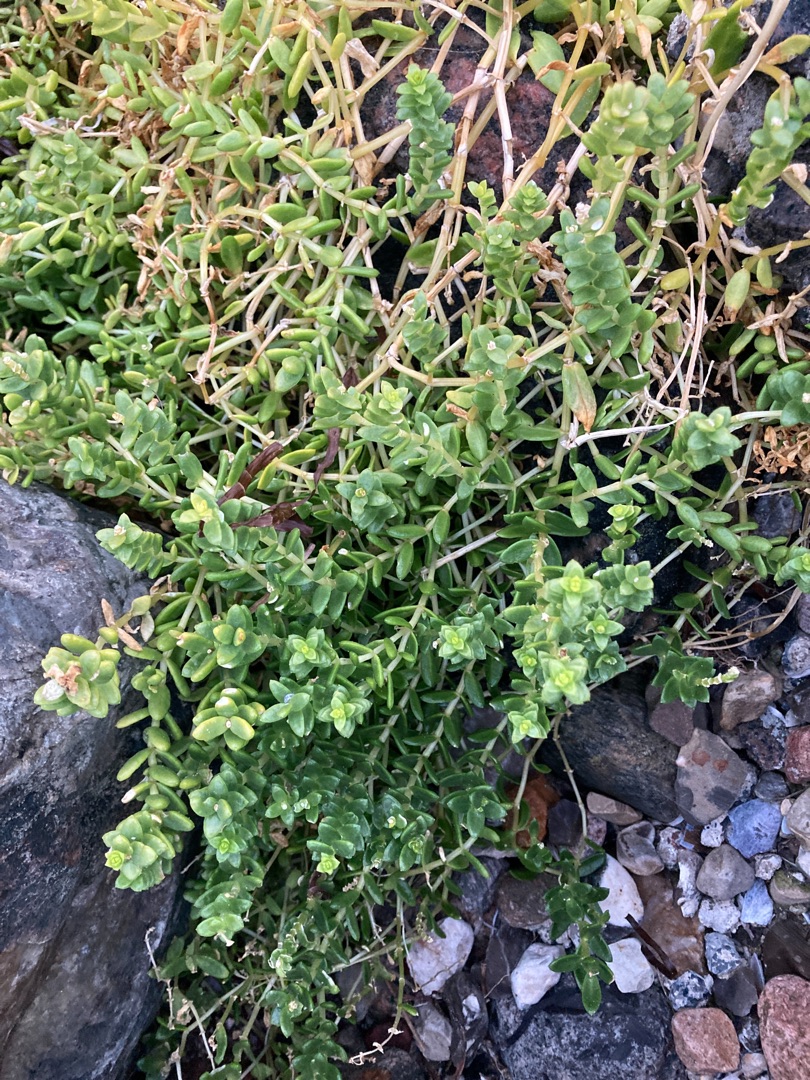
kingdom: Plantae
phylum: Tracheophyta
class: Magnoliopsida
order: Caryophyllales
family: Caryophyllaceae
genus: Honckenya
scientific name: Honckenya peploides
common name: Strandarve
